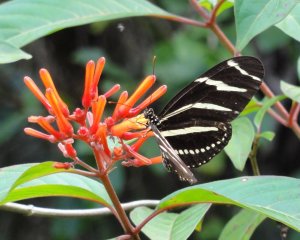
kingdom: Animalia
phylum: Arthropoda
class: Insecta
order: Lepidoptera
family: Nymphalidae
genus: Heliconius
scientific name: Heliconius charithonia
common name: Zebra Longwing
